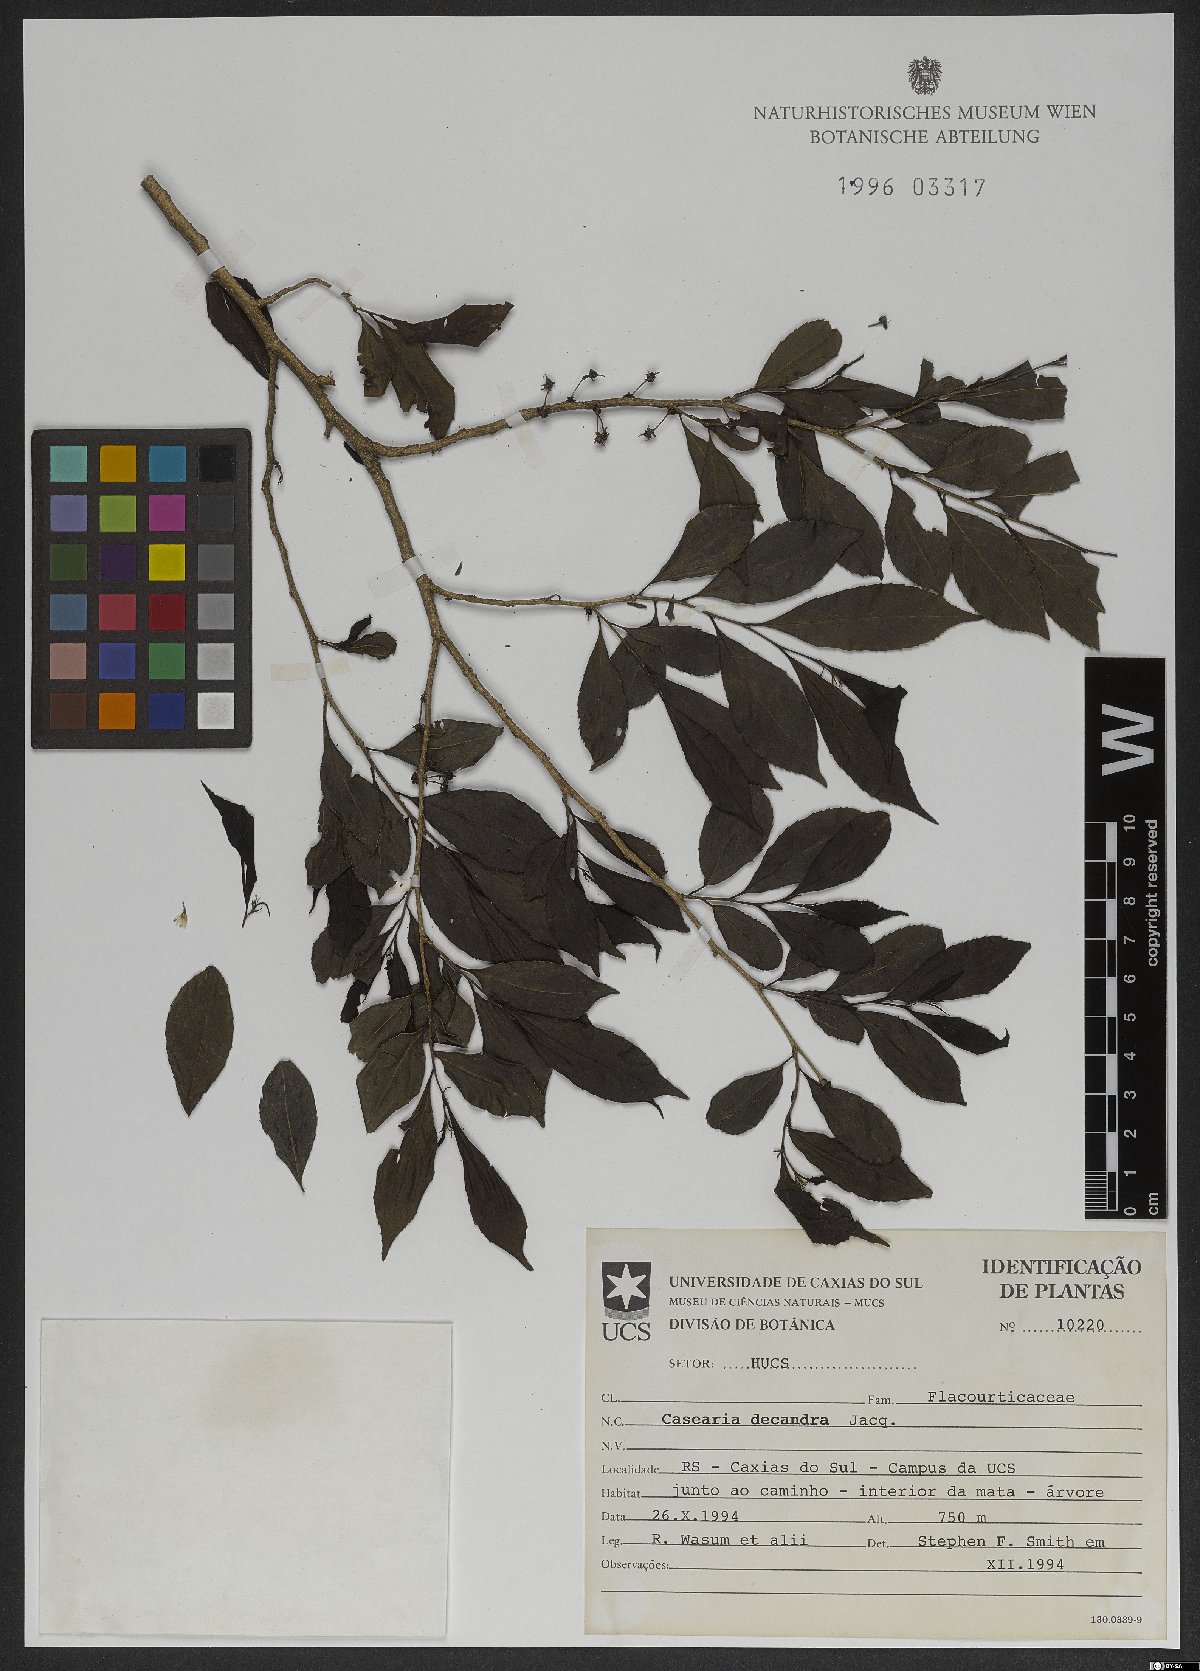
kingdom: Plantae
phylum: Tracheophyta
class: Magnoliopsida
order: Malpighiales
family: Salicaceae
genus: Casearia
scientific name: Casearia decandra
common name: Crack open
